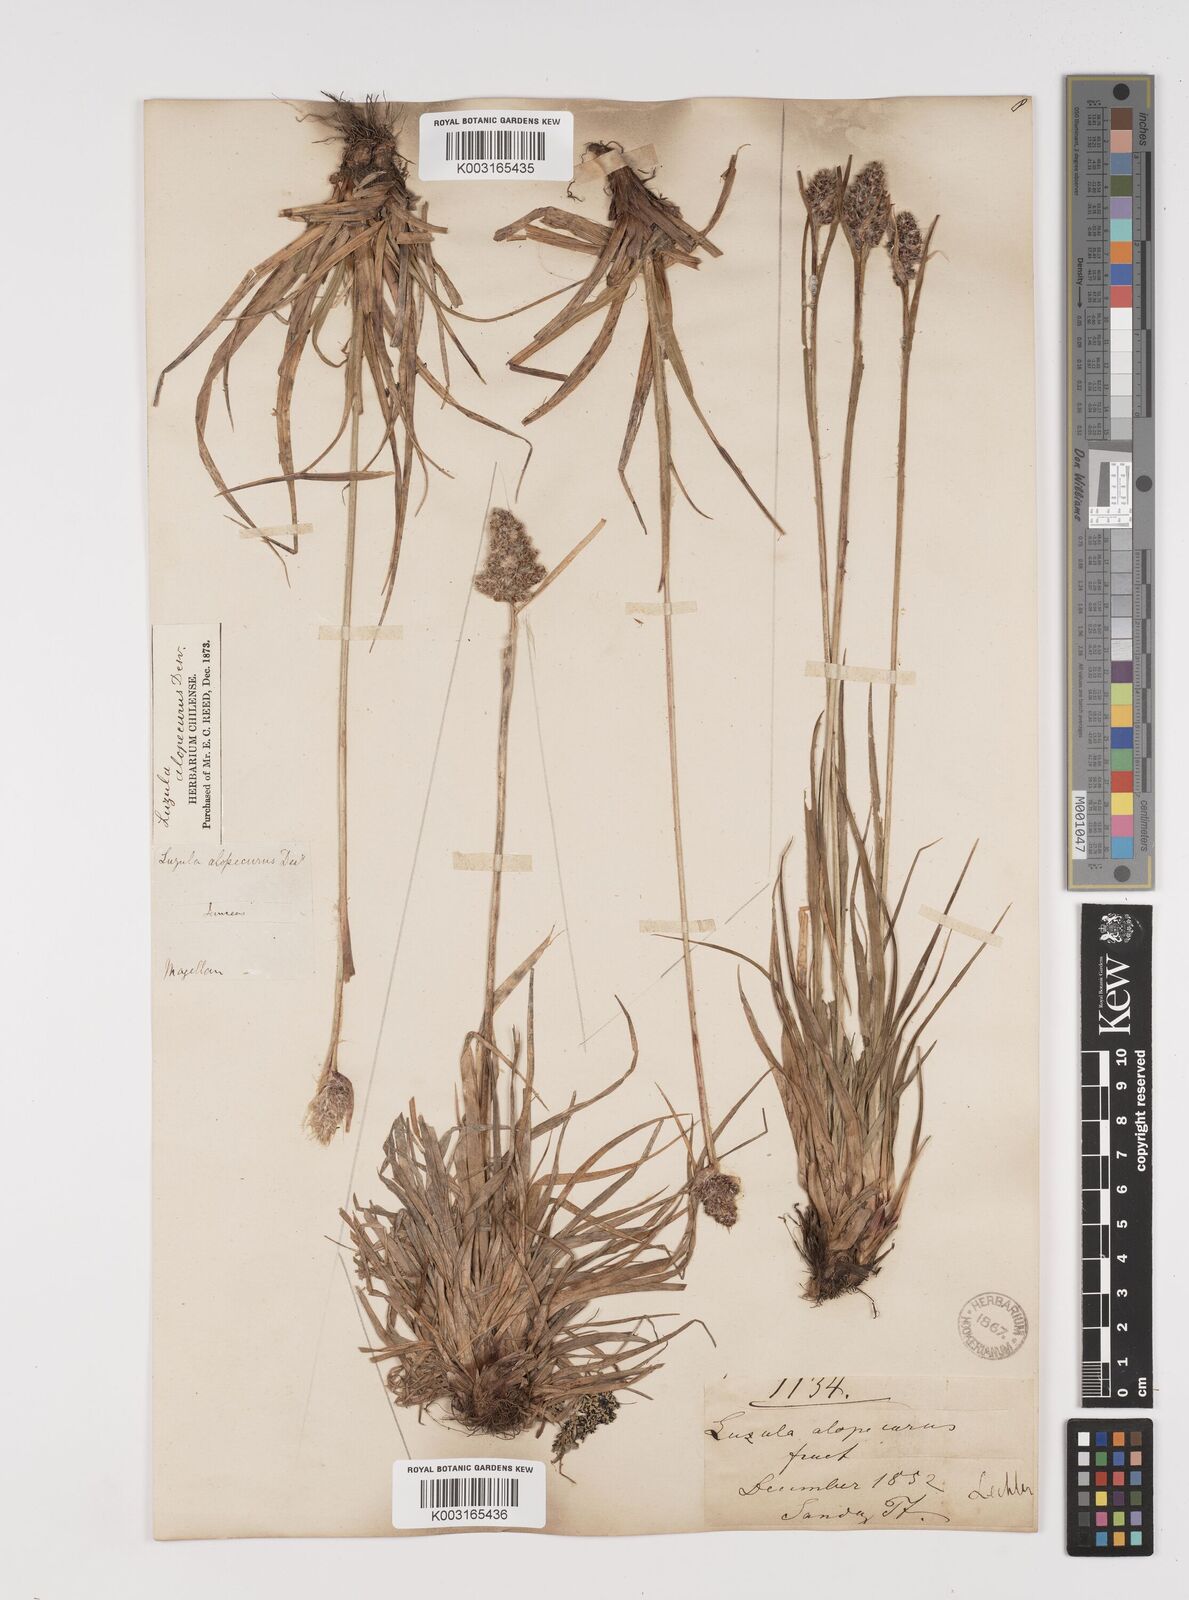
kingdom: Plantae
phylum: Tracheophyta
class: Liliopsida
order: Poales
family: Juncaceae
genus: Luzula
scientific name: Luzula alopecurus
